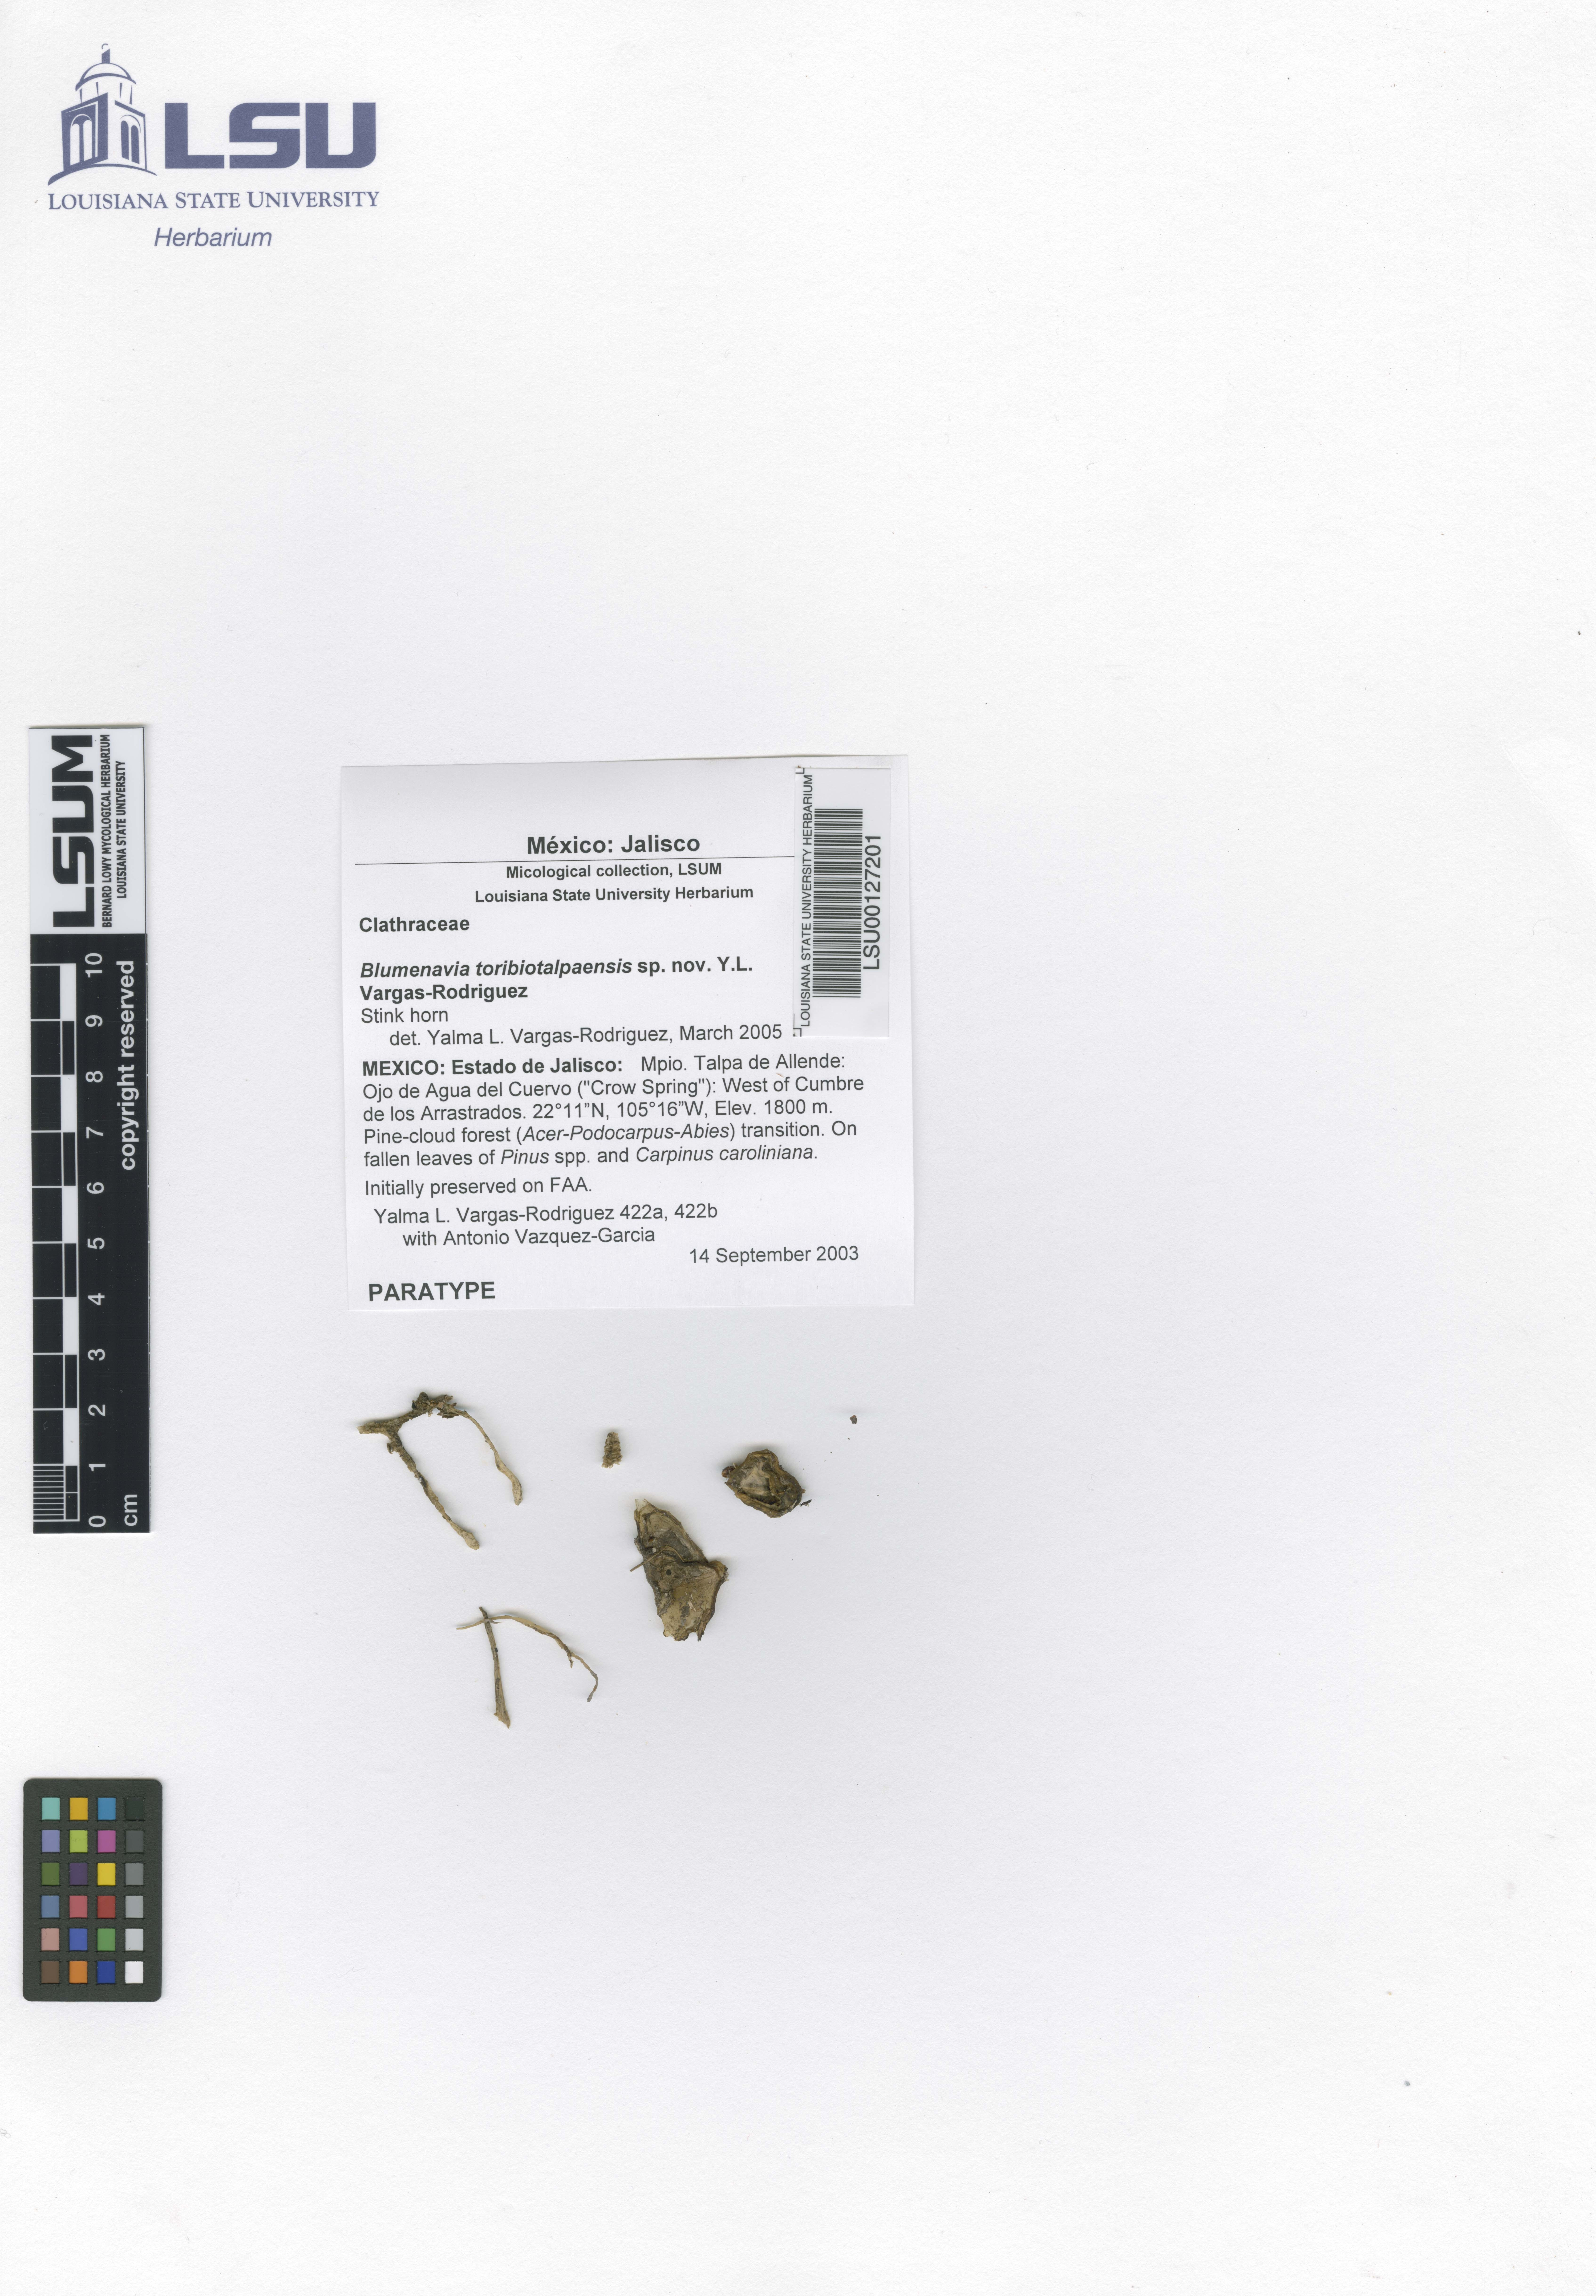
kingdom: Fungi
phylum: Basidiomycota
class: Agaricomycetes
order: Phallales
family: Phallaceae
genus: Blumenavia
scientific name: Blumenavia toribiotalpaensis
